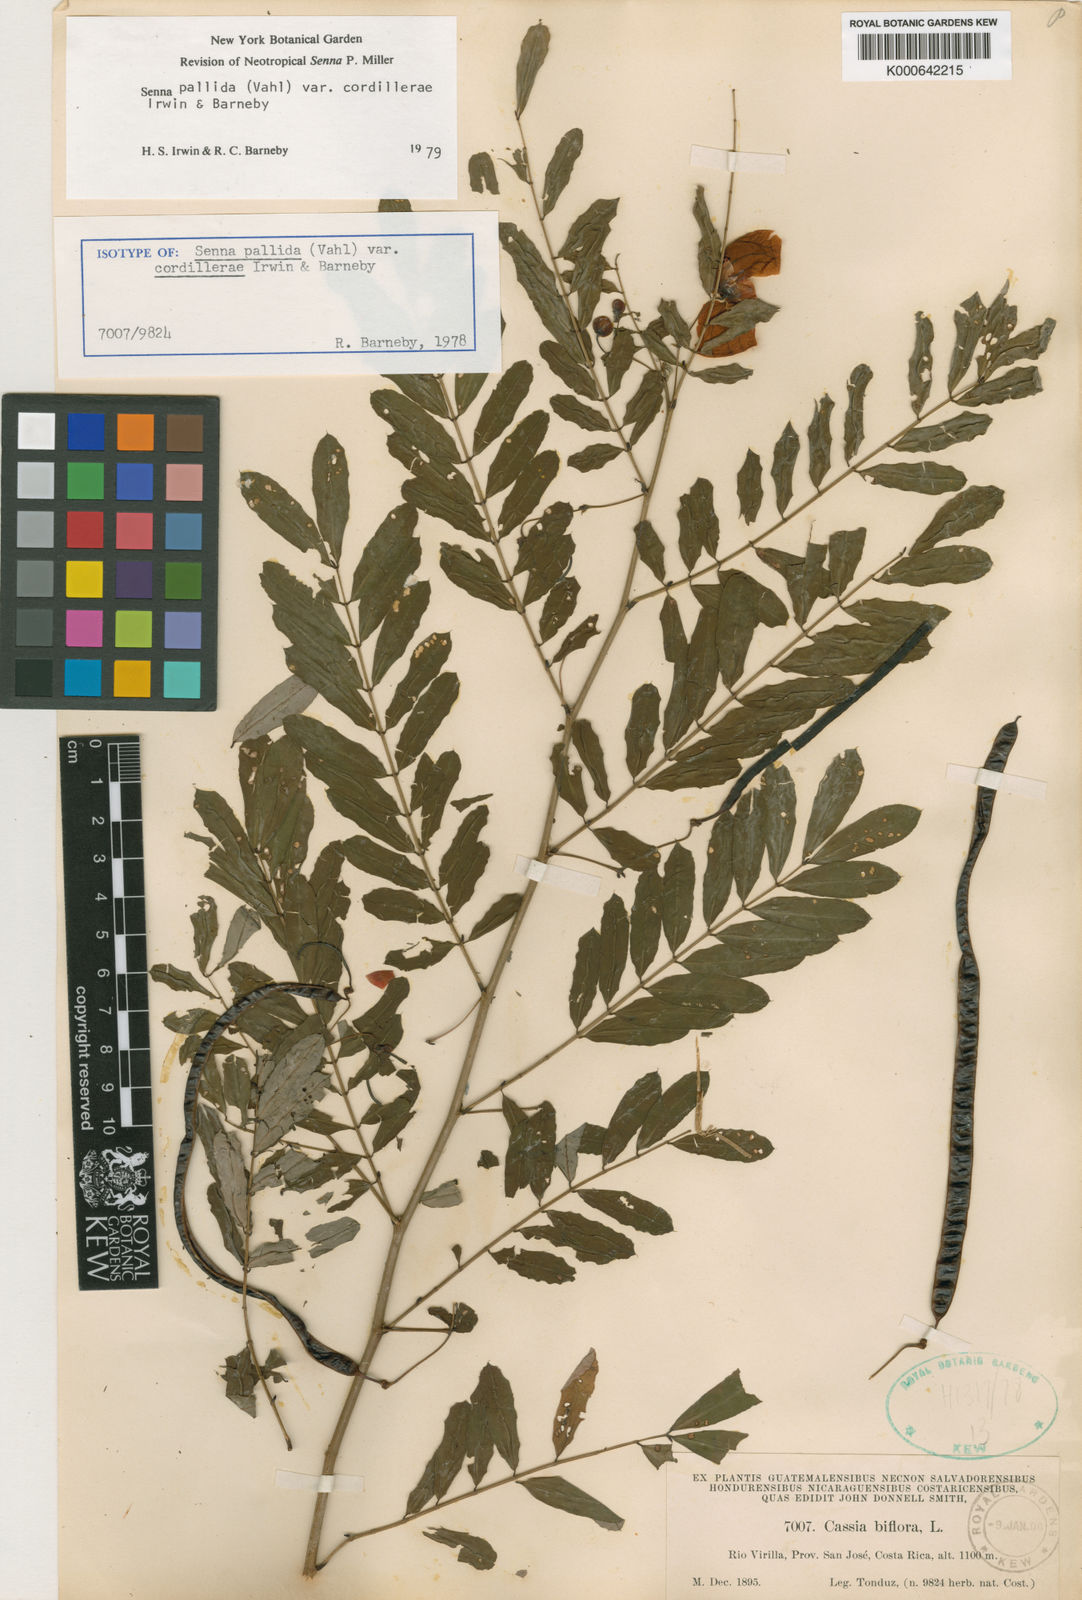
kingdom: Plantae
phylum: Tracheophyta
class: Magnoliopsida
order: Fabales
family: Fabaceae
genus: Senna
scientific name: Senna pallida
